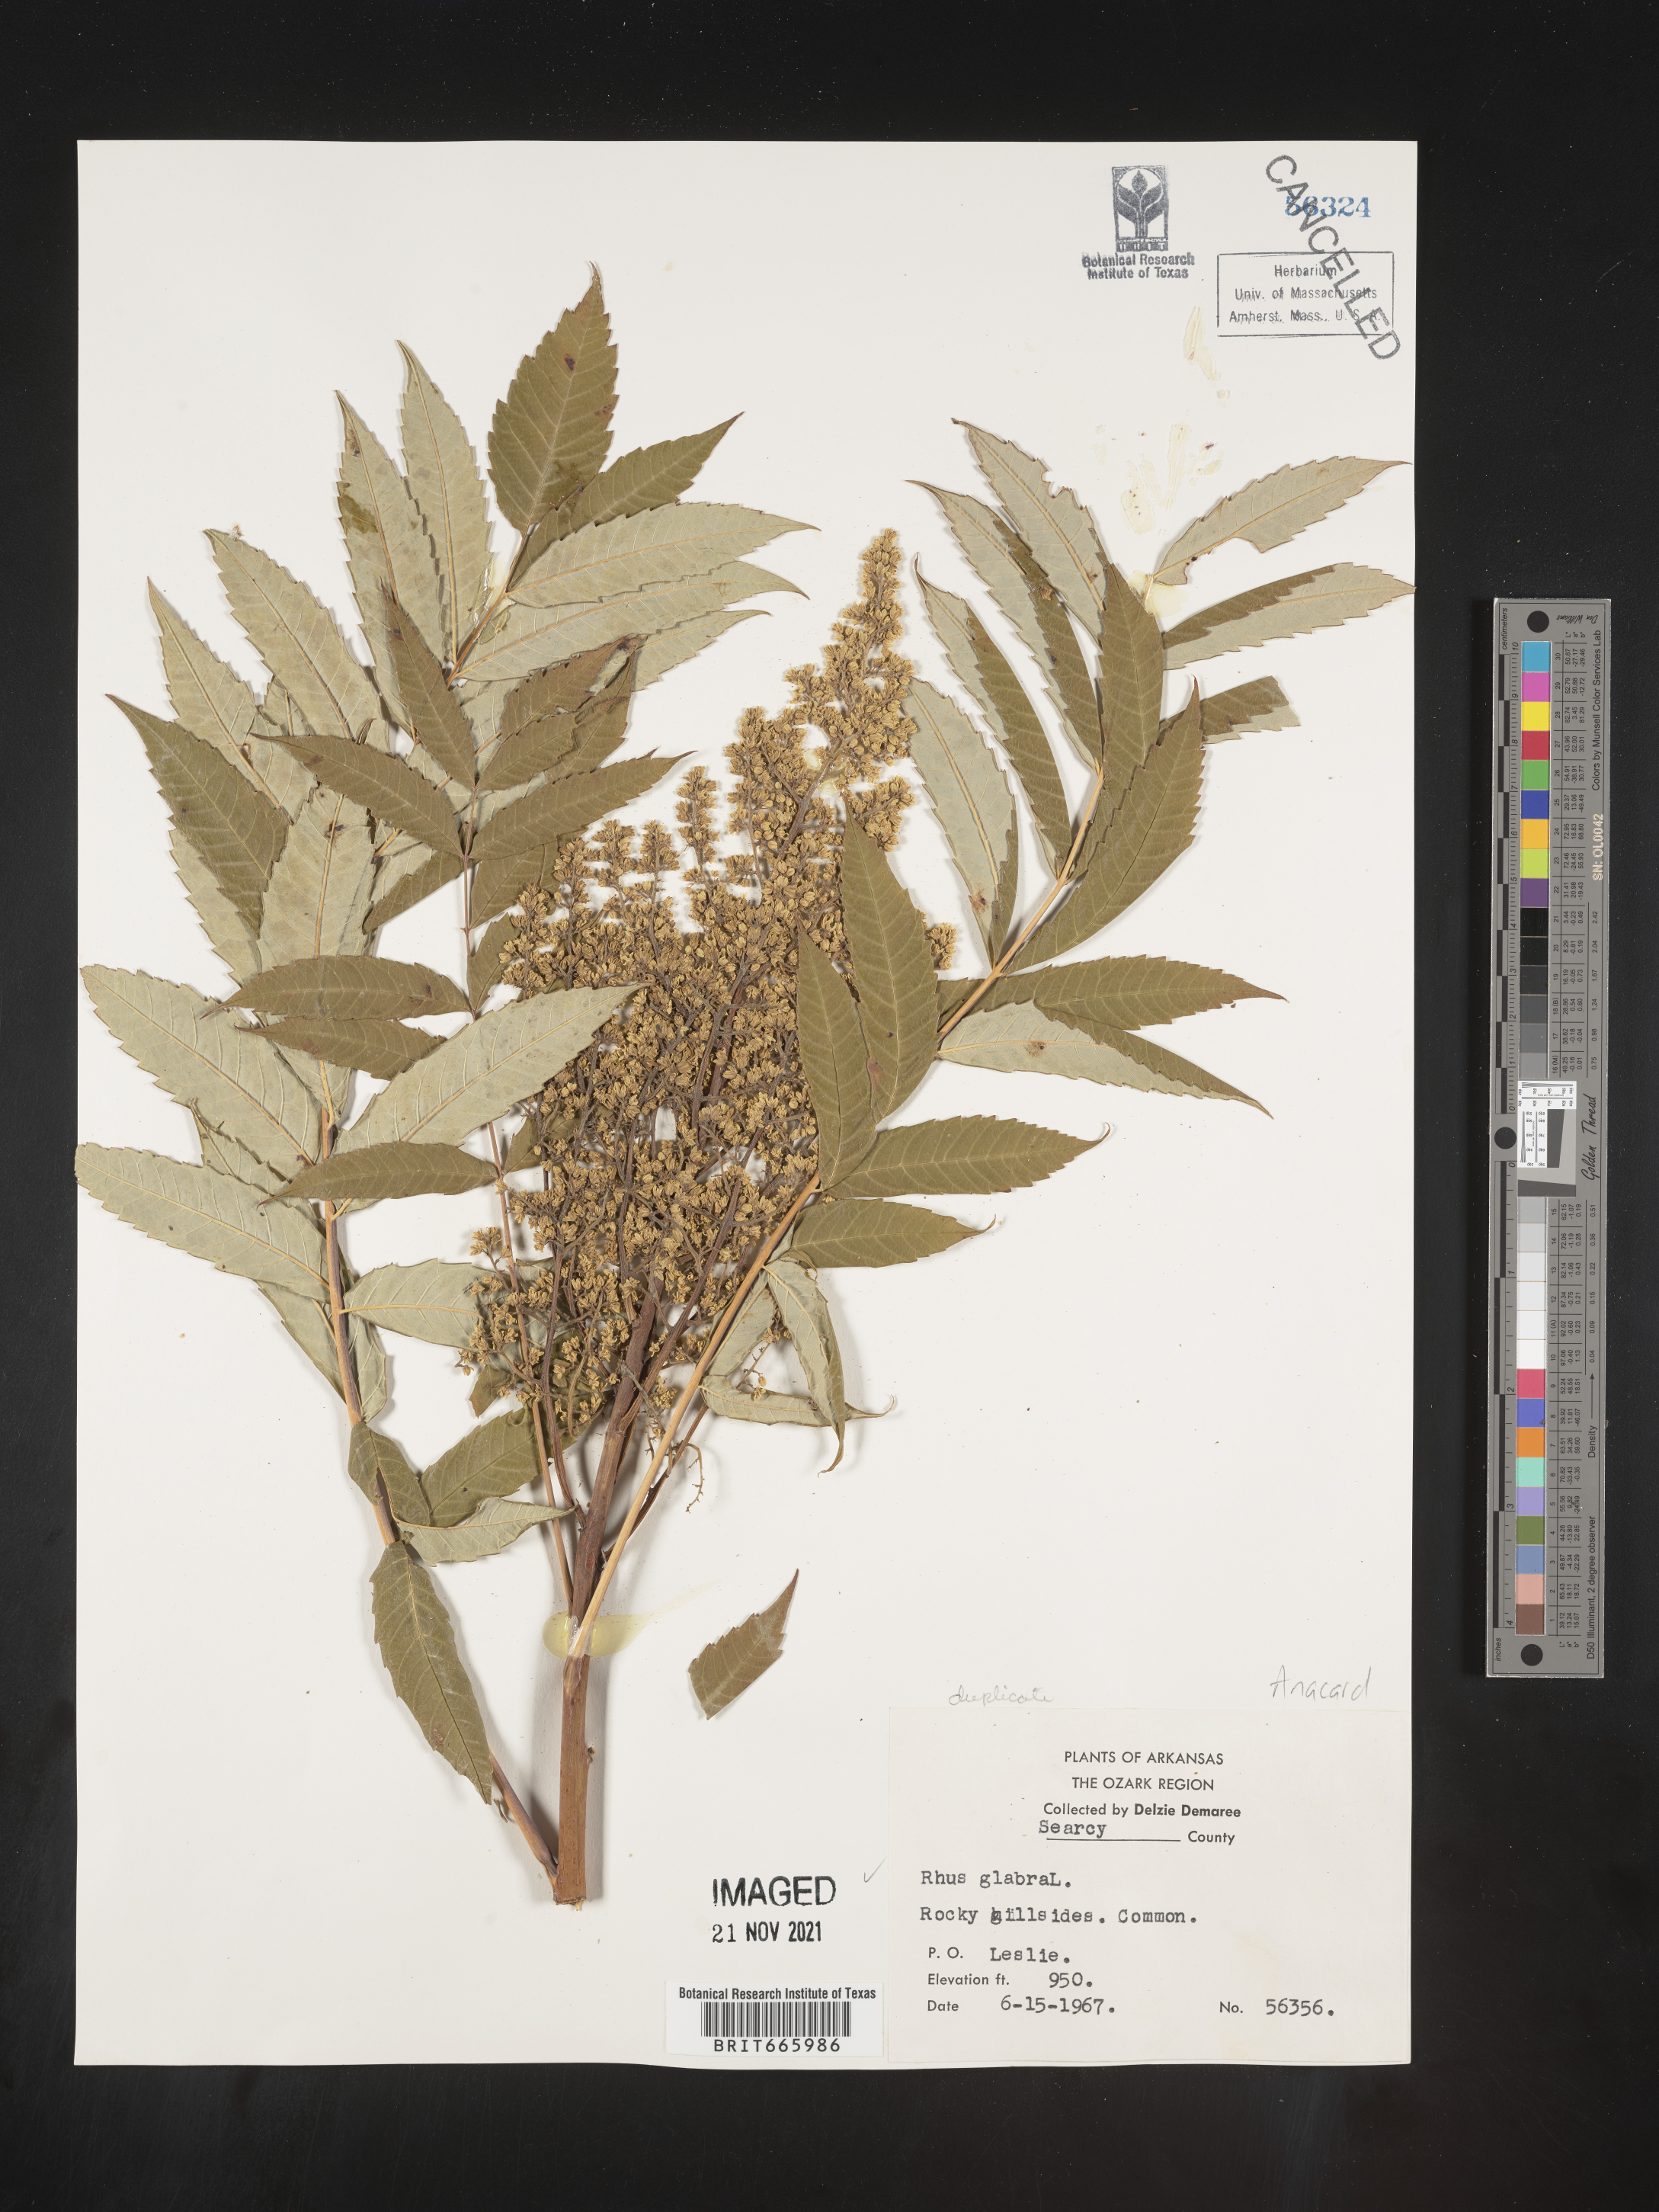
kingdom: Plantae
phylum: Tracheophyta
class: Magnoliopsida
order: Sapindales
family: Anacardiaceae
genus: Rhus
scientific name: Rhus glabra
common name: Scarlet sumac
